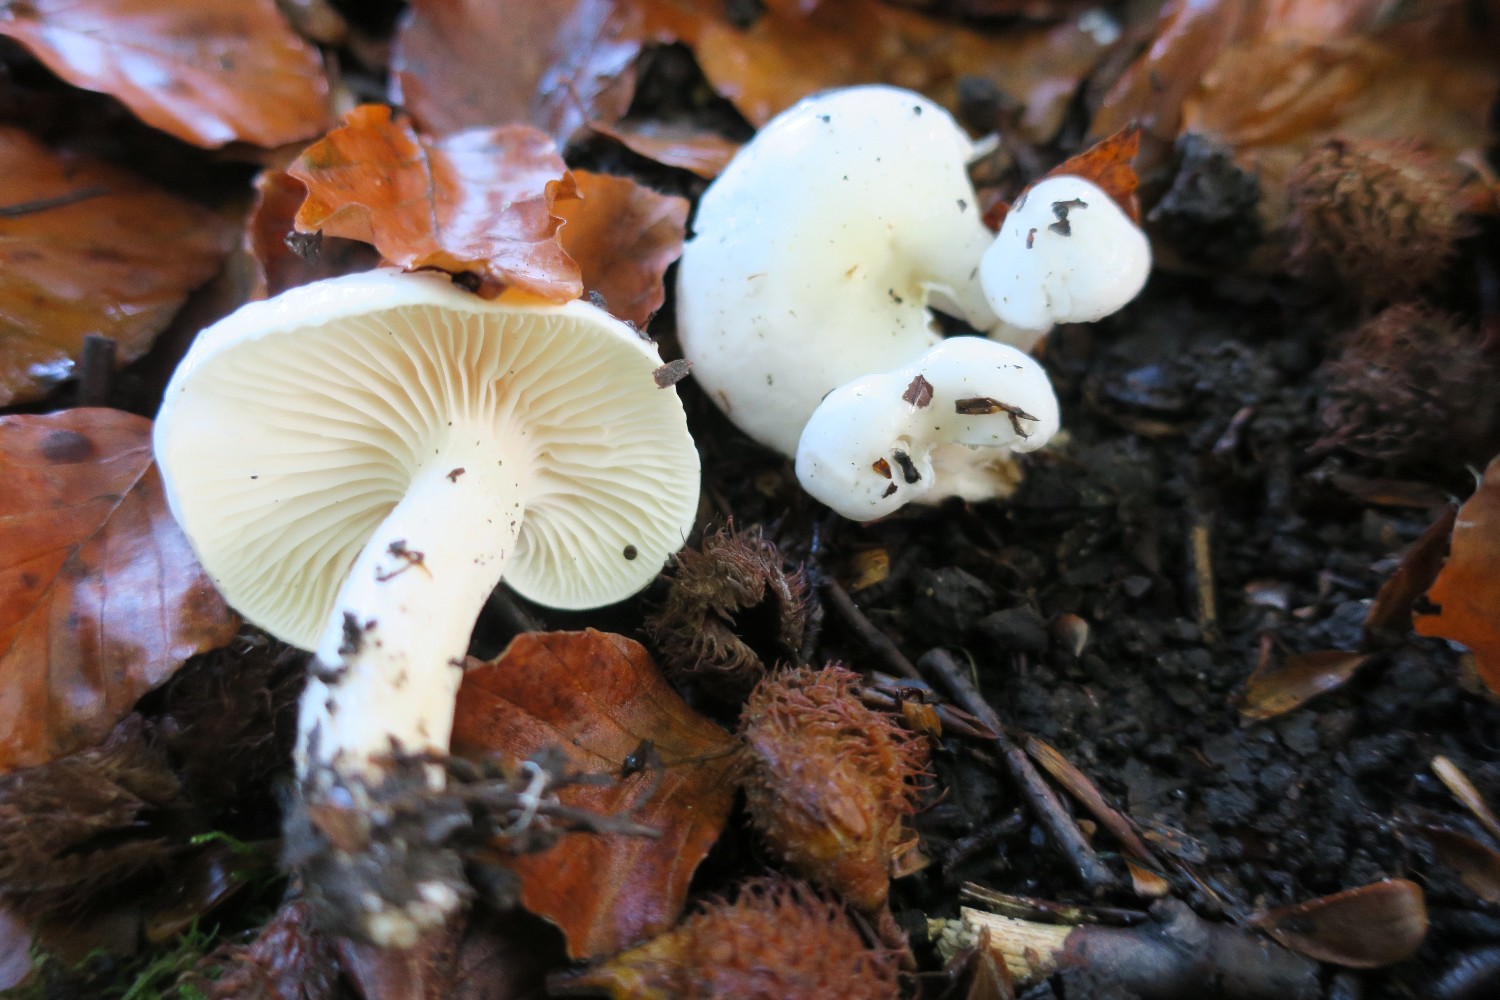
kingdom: Fungi
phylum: Basidiomycota
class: Agaricomycetes
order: Agaricales
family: Hygrophoraceae
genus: Hygrophorus
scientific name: Hygrophorus eburneus
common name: elfenbens-sneglehat
